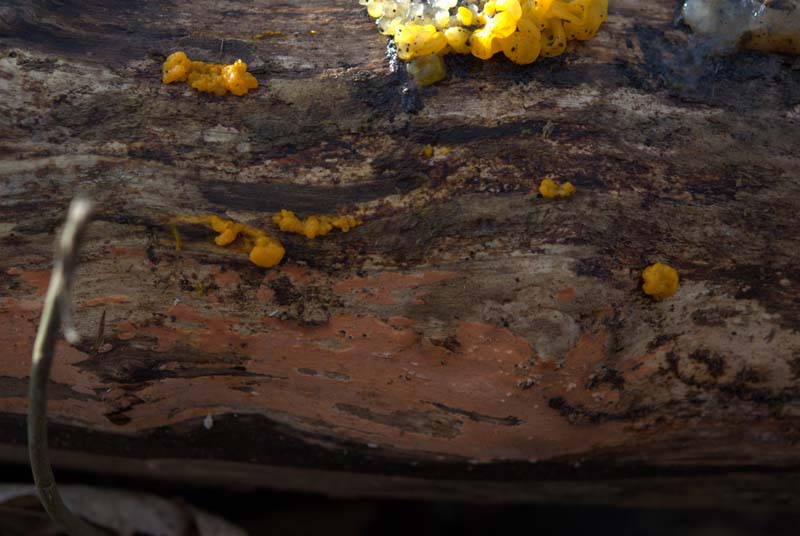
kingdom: Fungi
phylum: Basidiomycota
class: Tremellomycetes
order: Tremellales
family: Tremellaceae
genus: Tremella
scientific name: Tremella mesenterica
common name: gul bævresvamp
